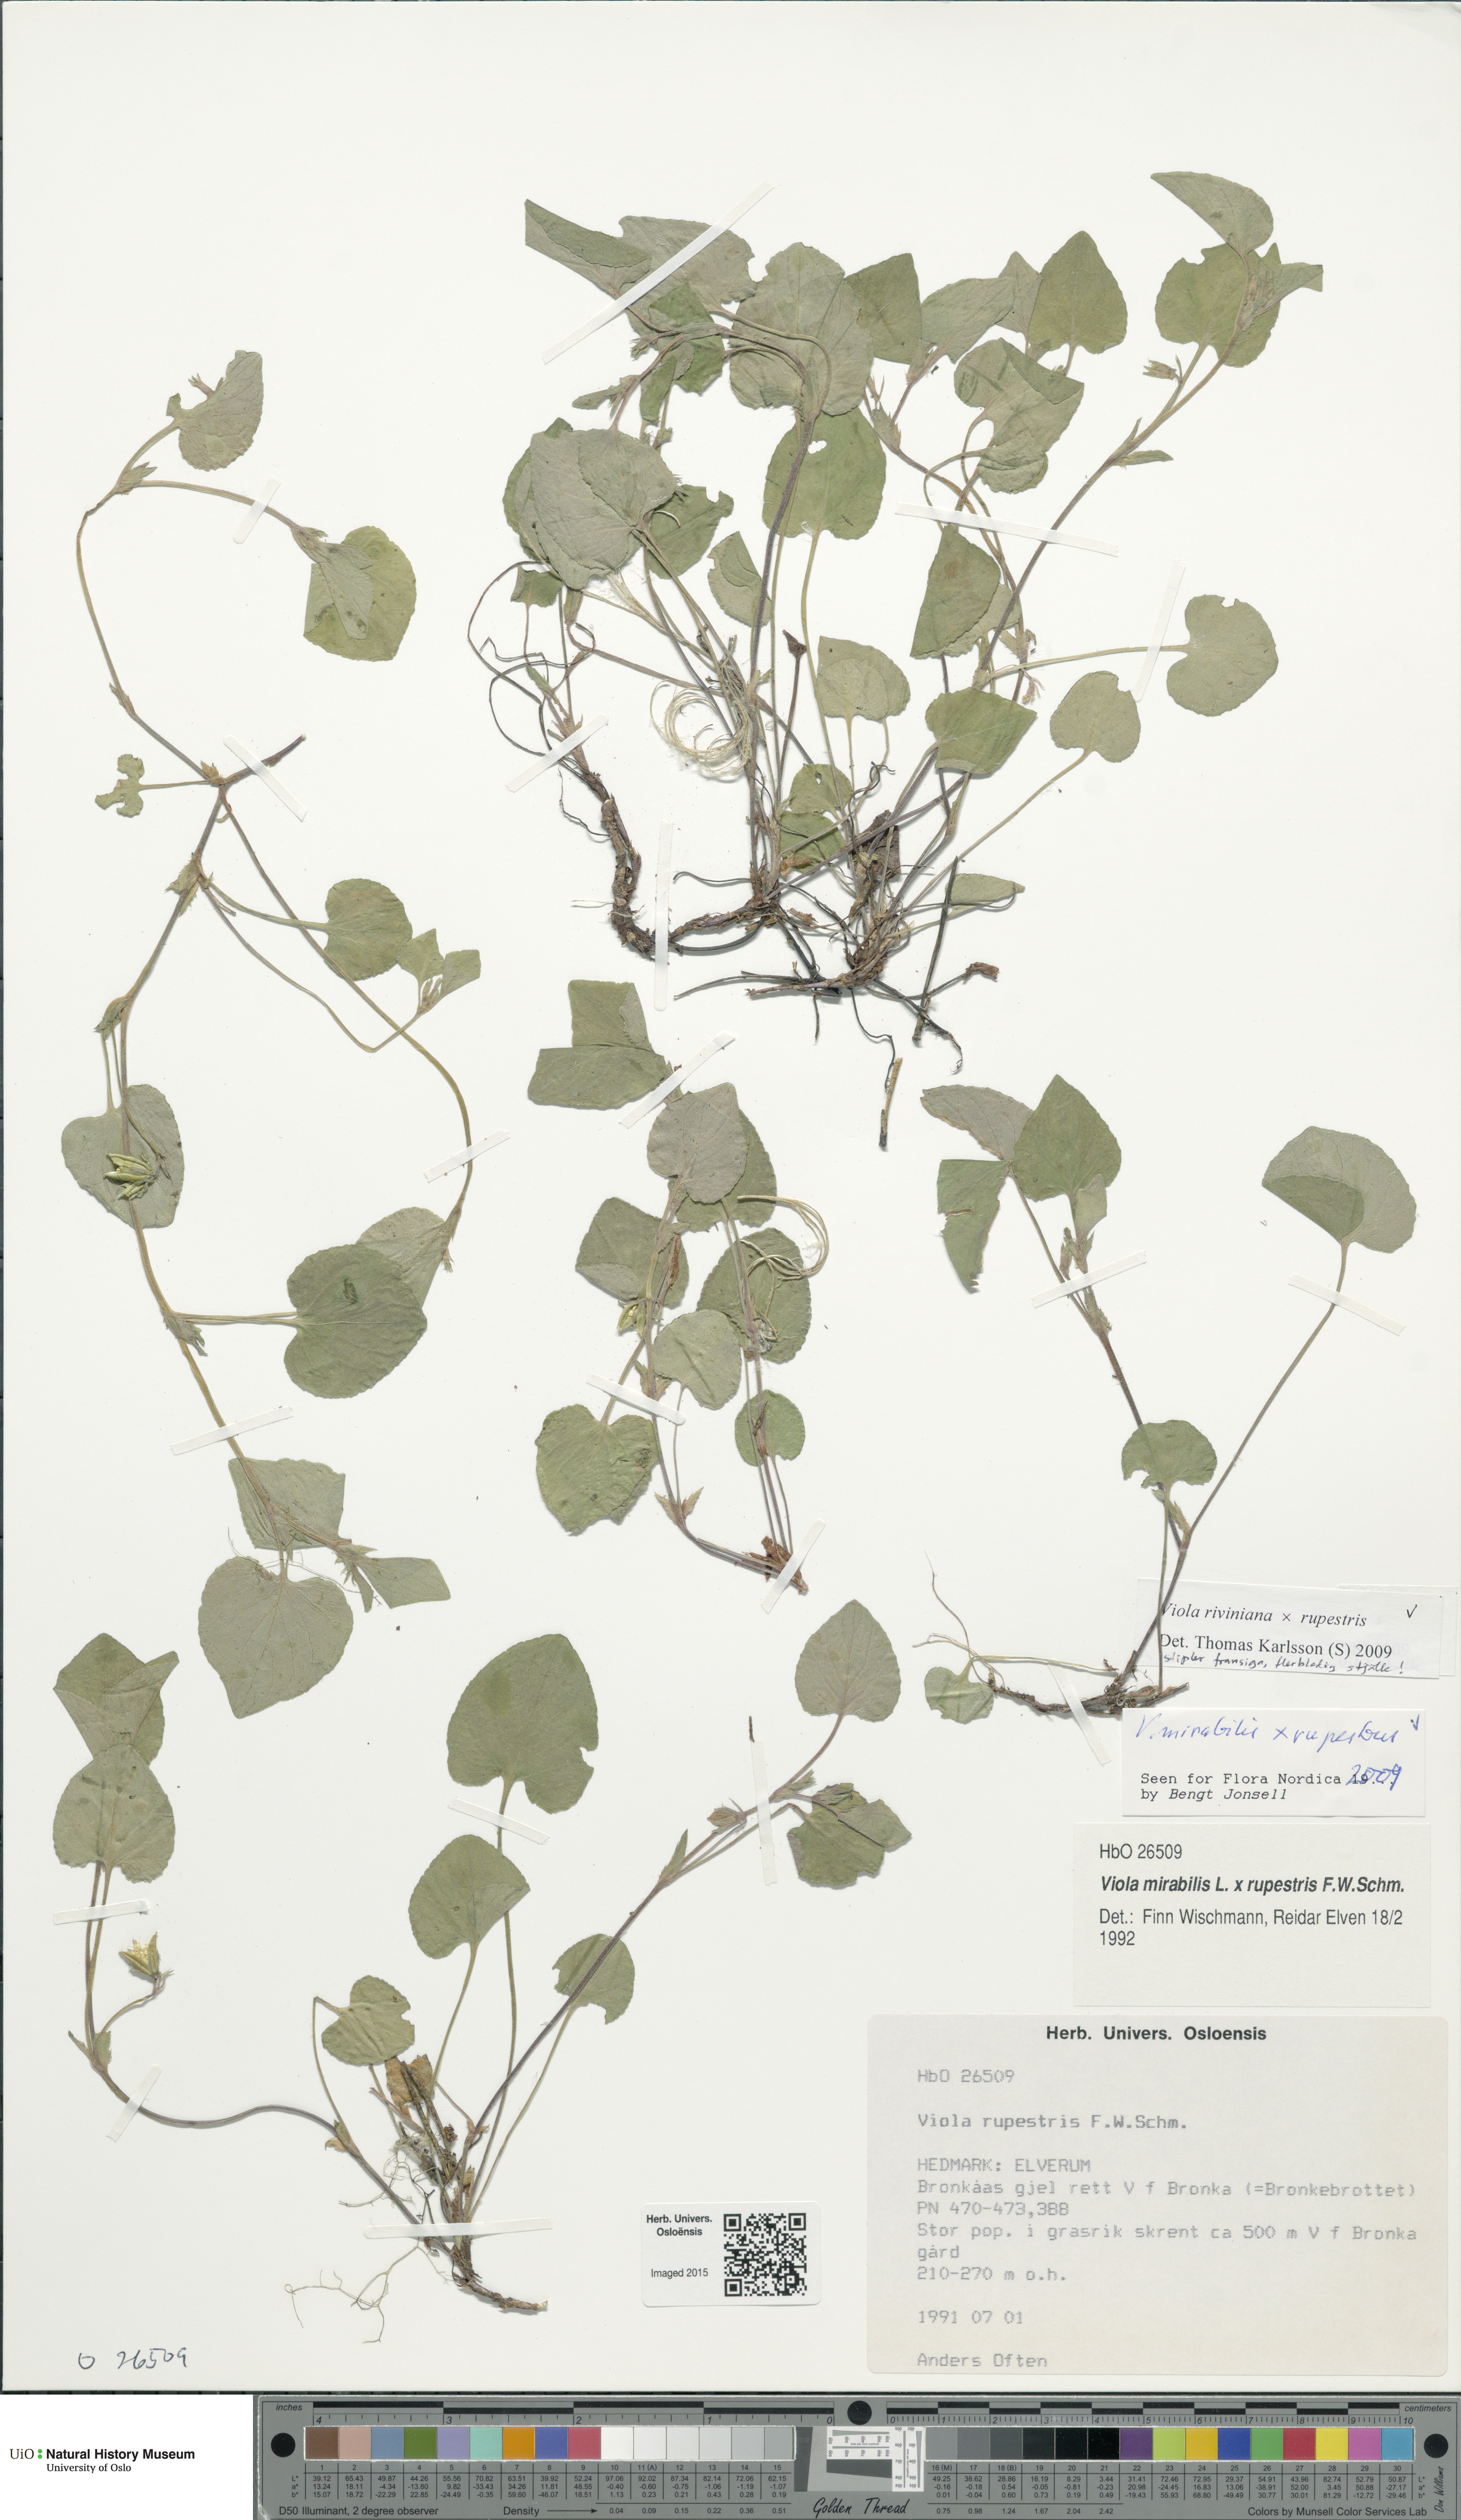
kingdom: Plantae
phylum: Tracheophyta
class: Magnoliopsida
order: Malpighiales
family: Violaceae
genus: Viola
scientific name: Viola
